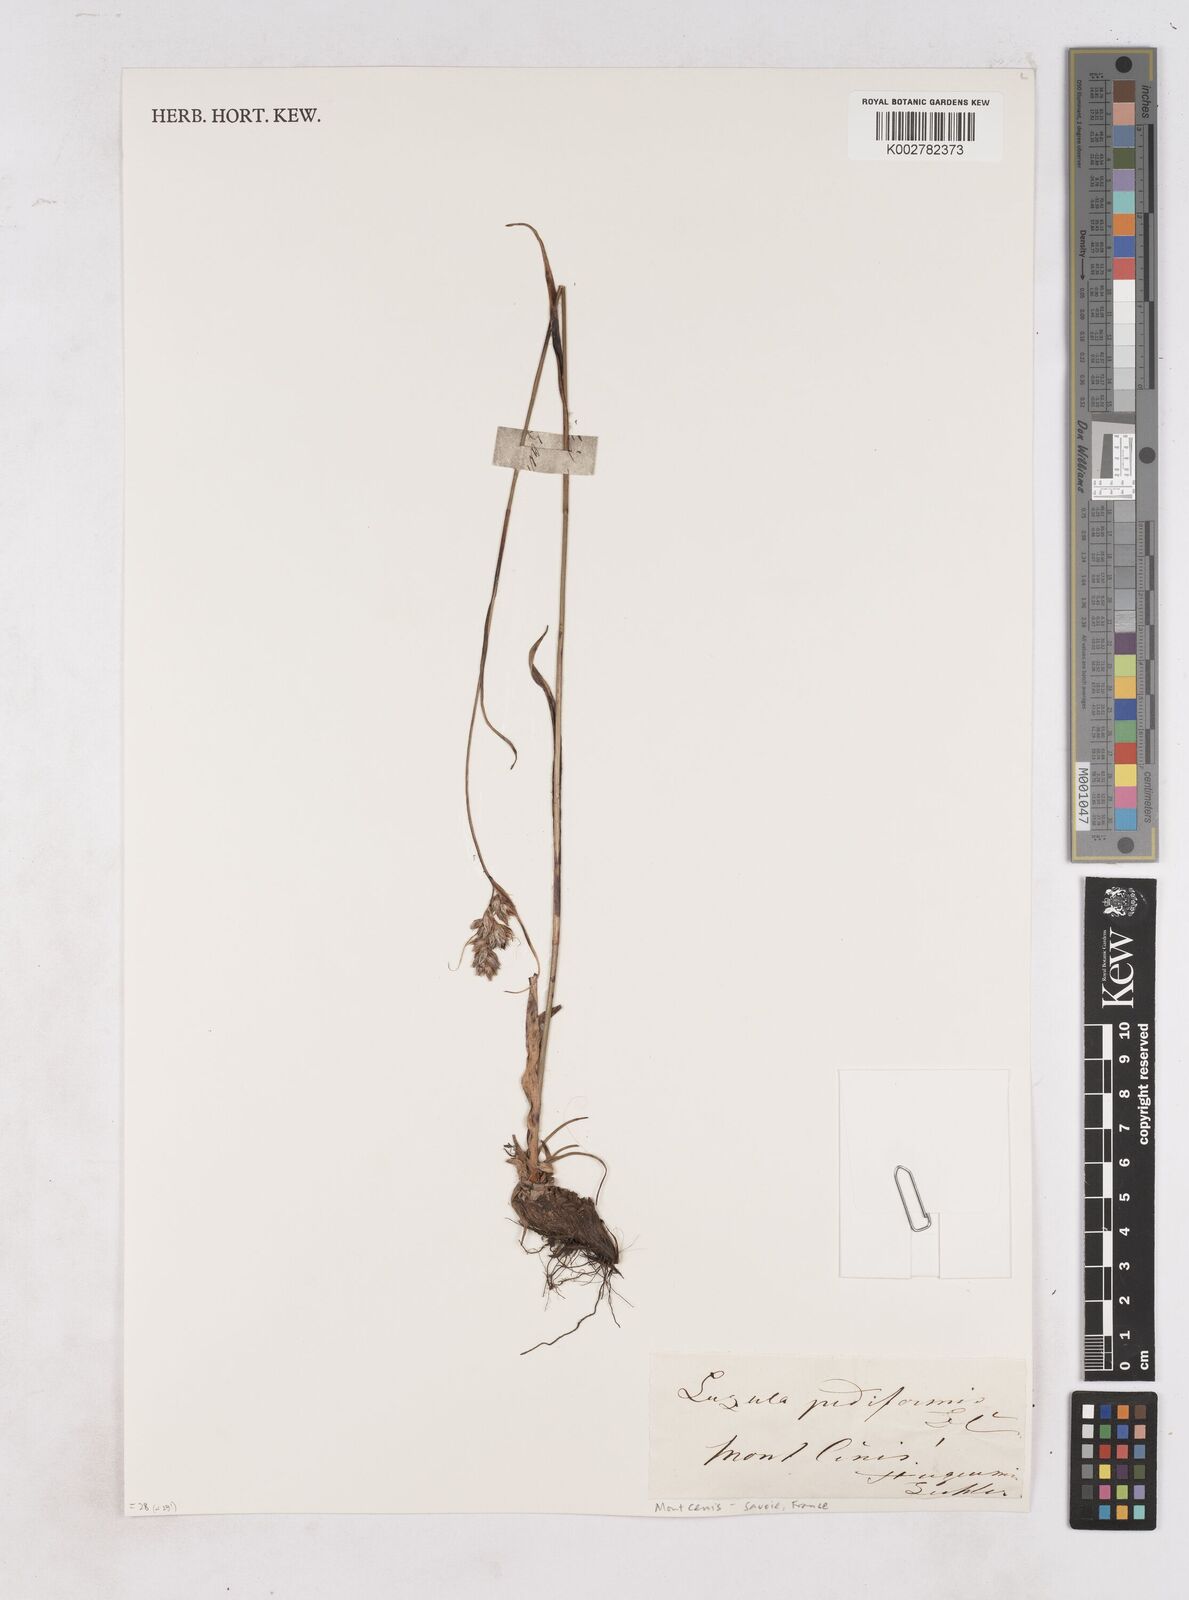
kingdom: Plantae
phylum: Tracheophyta
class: Liliopsida
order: Poales
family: Juncaceae
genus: Luzula
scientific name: Luzula pediformis
